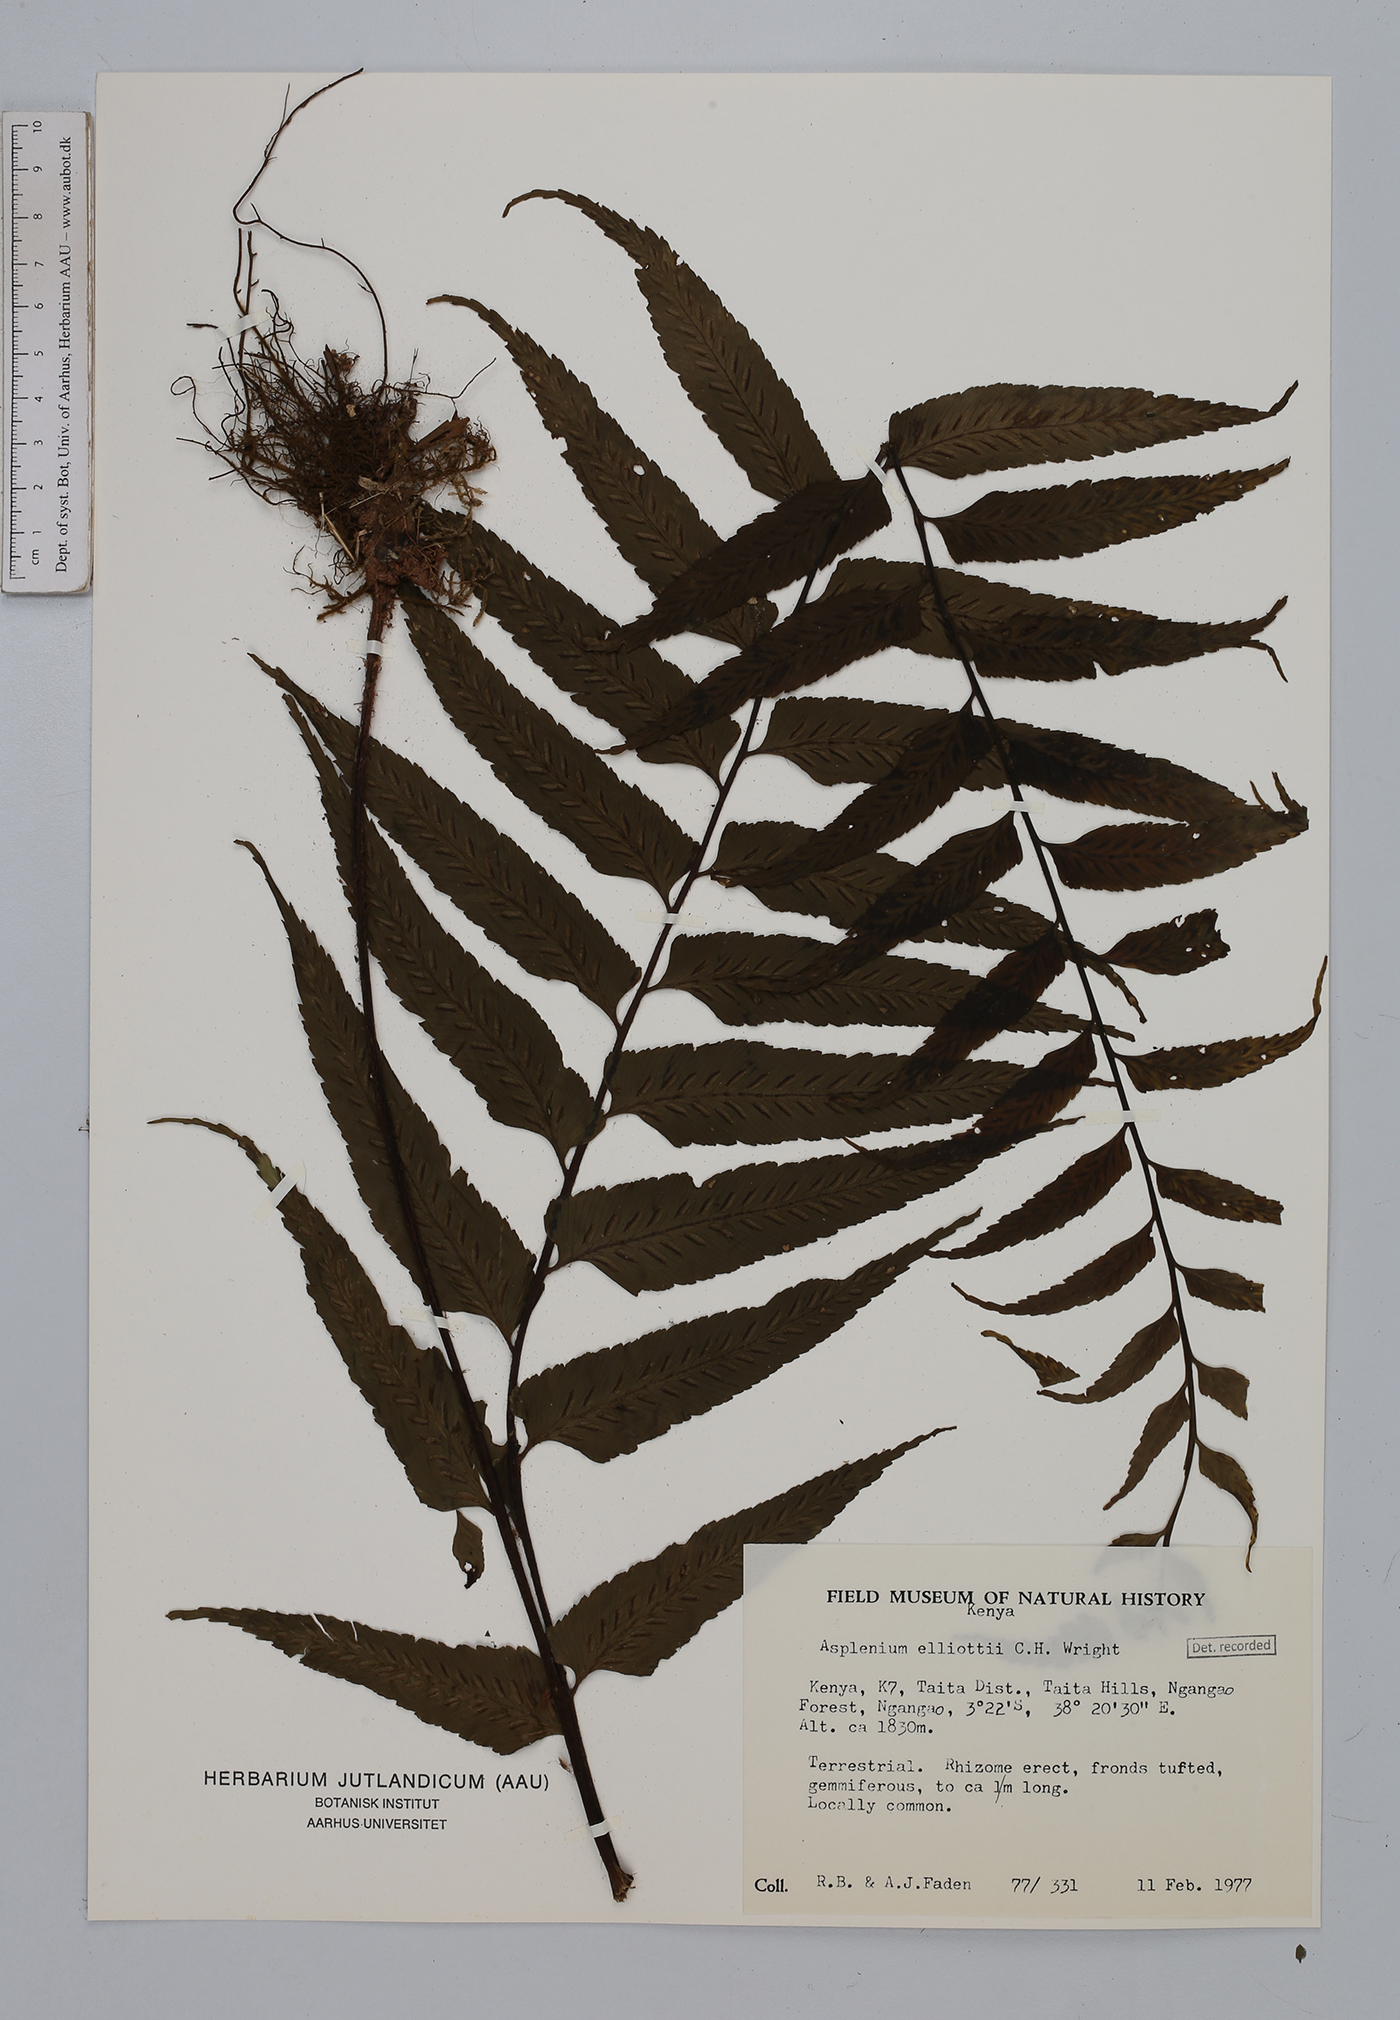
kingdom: Plantae
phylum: Tracheophyta
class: Polypodiopsida
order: Polypodiales
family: Aspleniaceae
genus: Asplenium
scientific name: Asplenium elliottii
